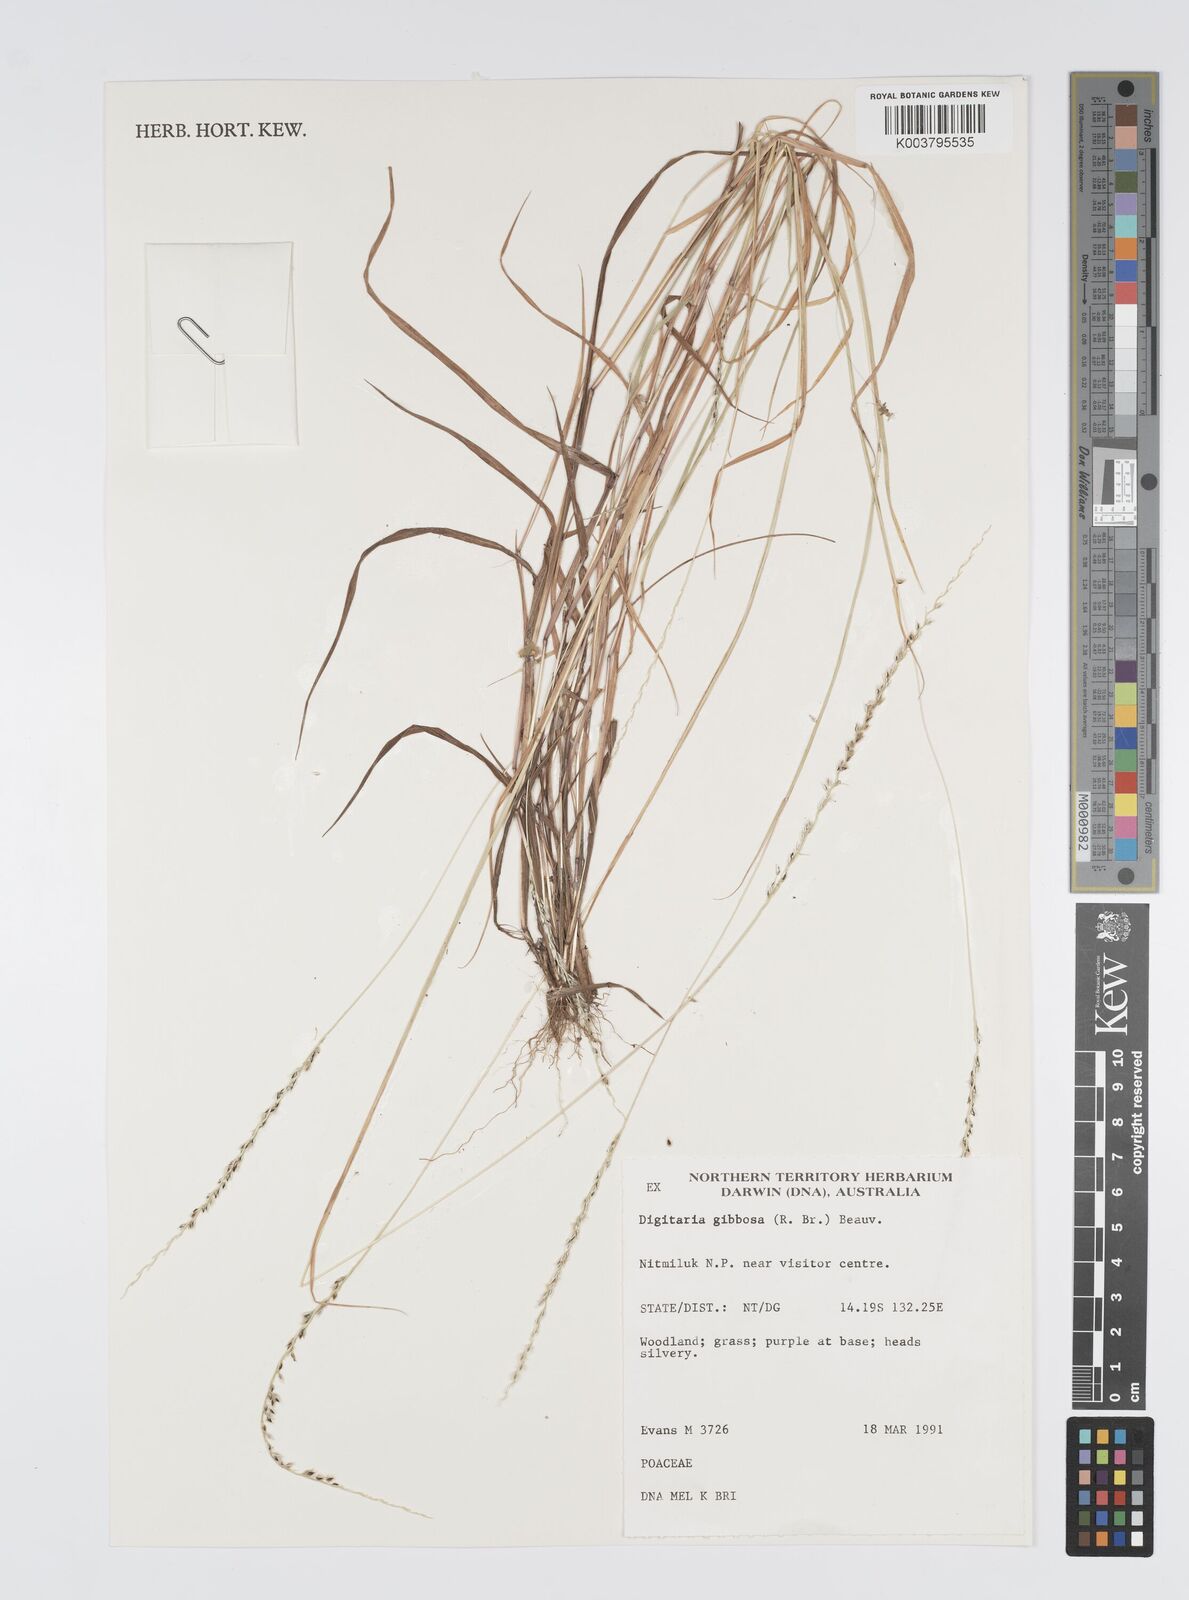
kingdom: Plantae
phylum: Tracheophyta
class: Liliopsida
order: Poales
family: Poaceae
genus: Digitaria
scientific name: Digitaria gibbosa
